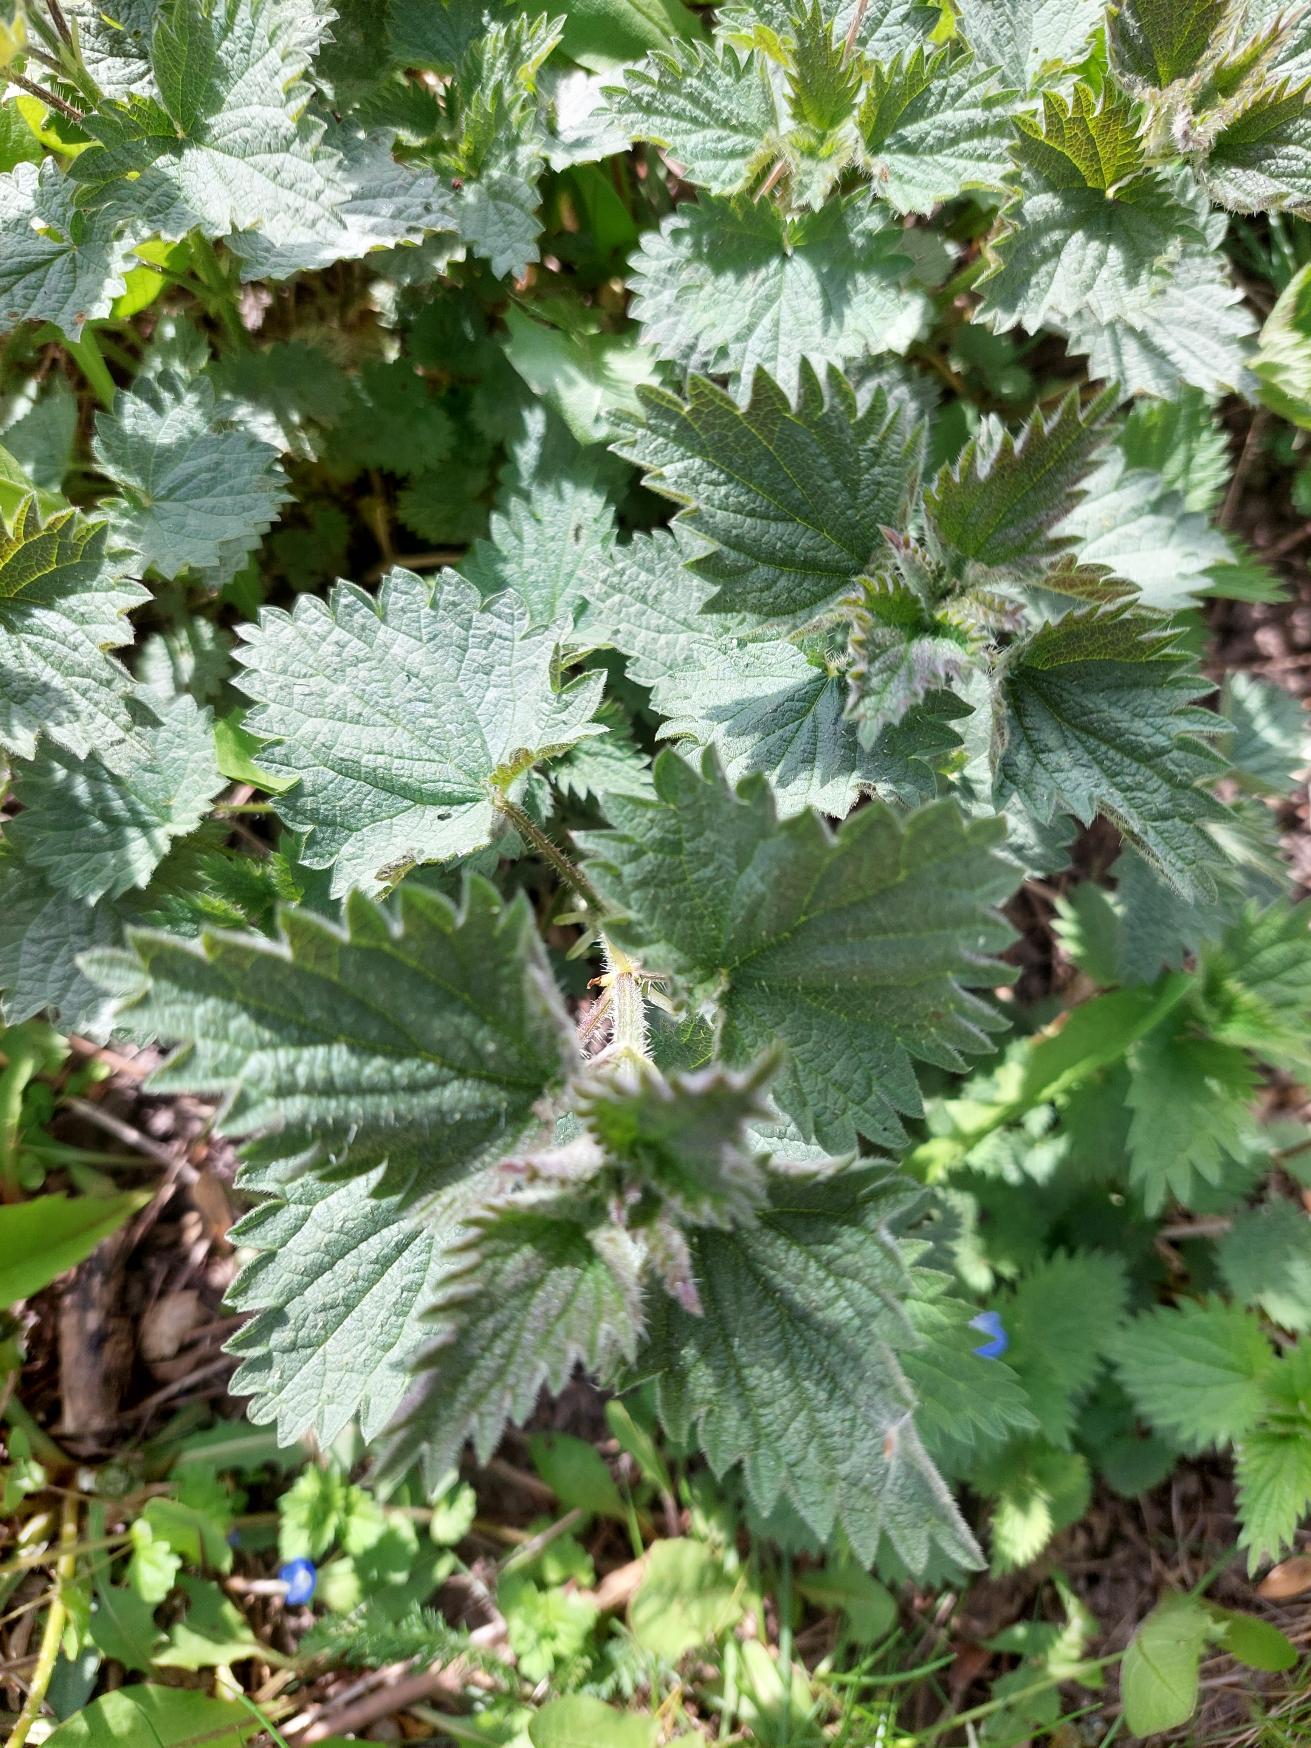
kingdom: Plantae
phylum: Tracheophyta
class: Magnoliopsida
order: Rosales
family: Urticaceae
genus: Urtica
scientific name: Urtica dioica
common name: Stor nælde
